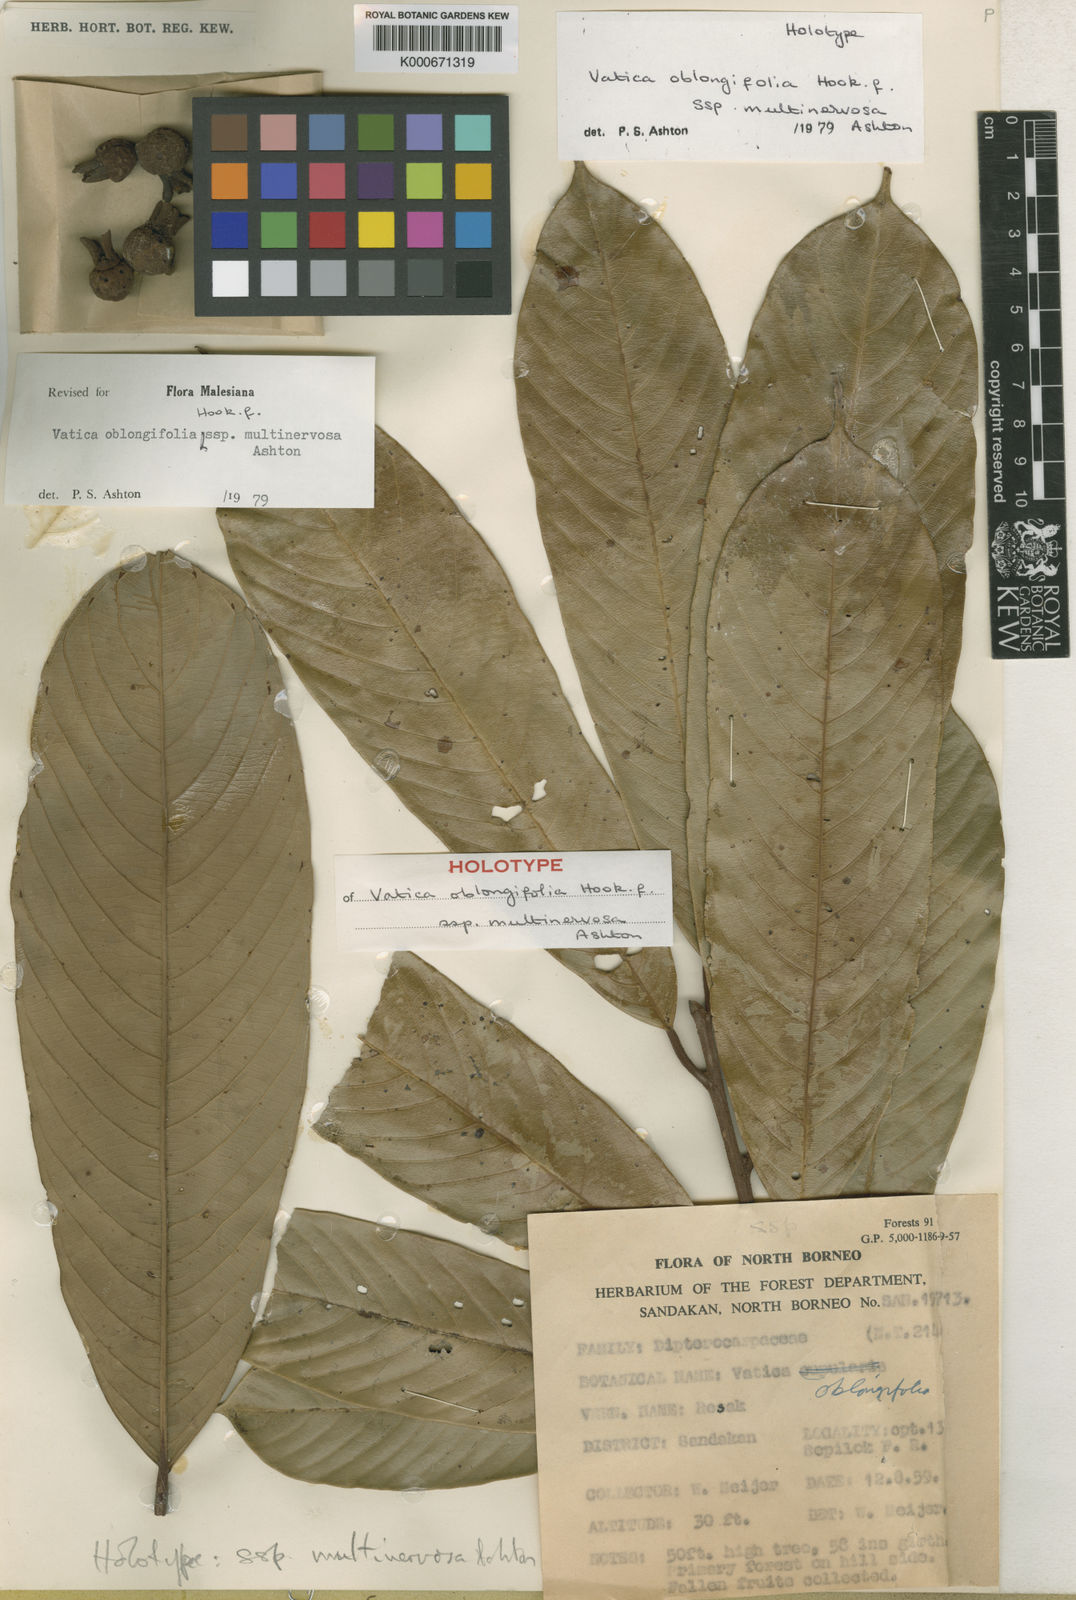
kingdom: Plantae
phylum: Tracheophyta
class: Magnoliopsida
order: Malvales
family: Dipterocarpaceae
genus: Vatica
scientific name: Vatica oblongifolia
